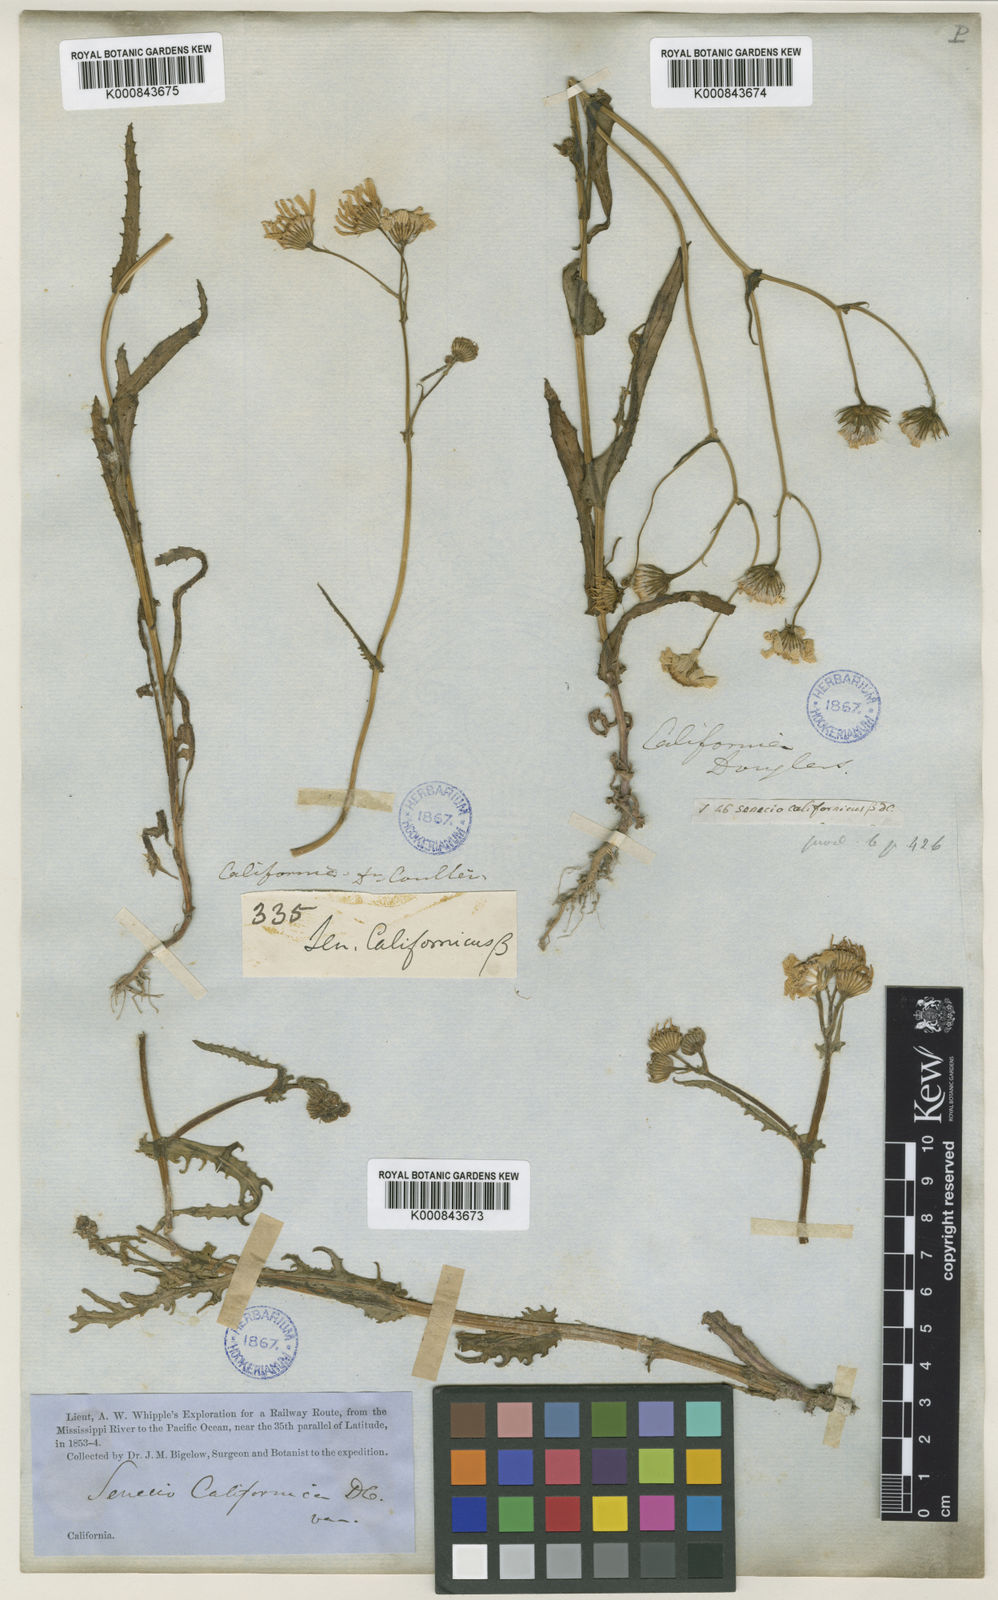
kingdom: Plantae
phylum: Tracheophyta
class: Magnoliopsida
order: Asterales
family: Asteraceae
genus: Senecio
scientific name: Senecio californicus
